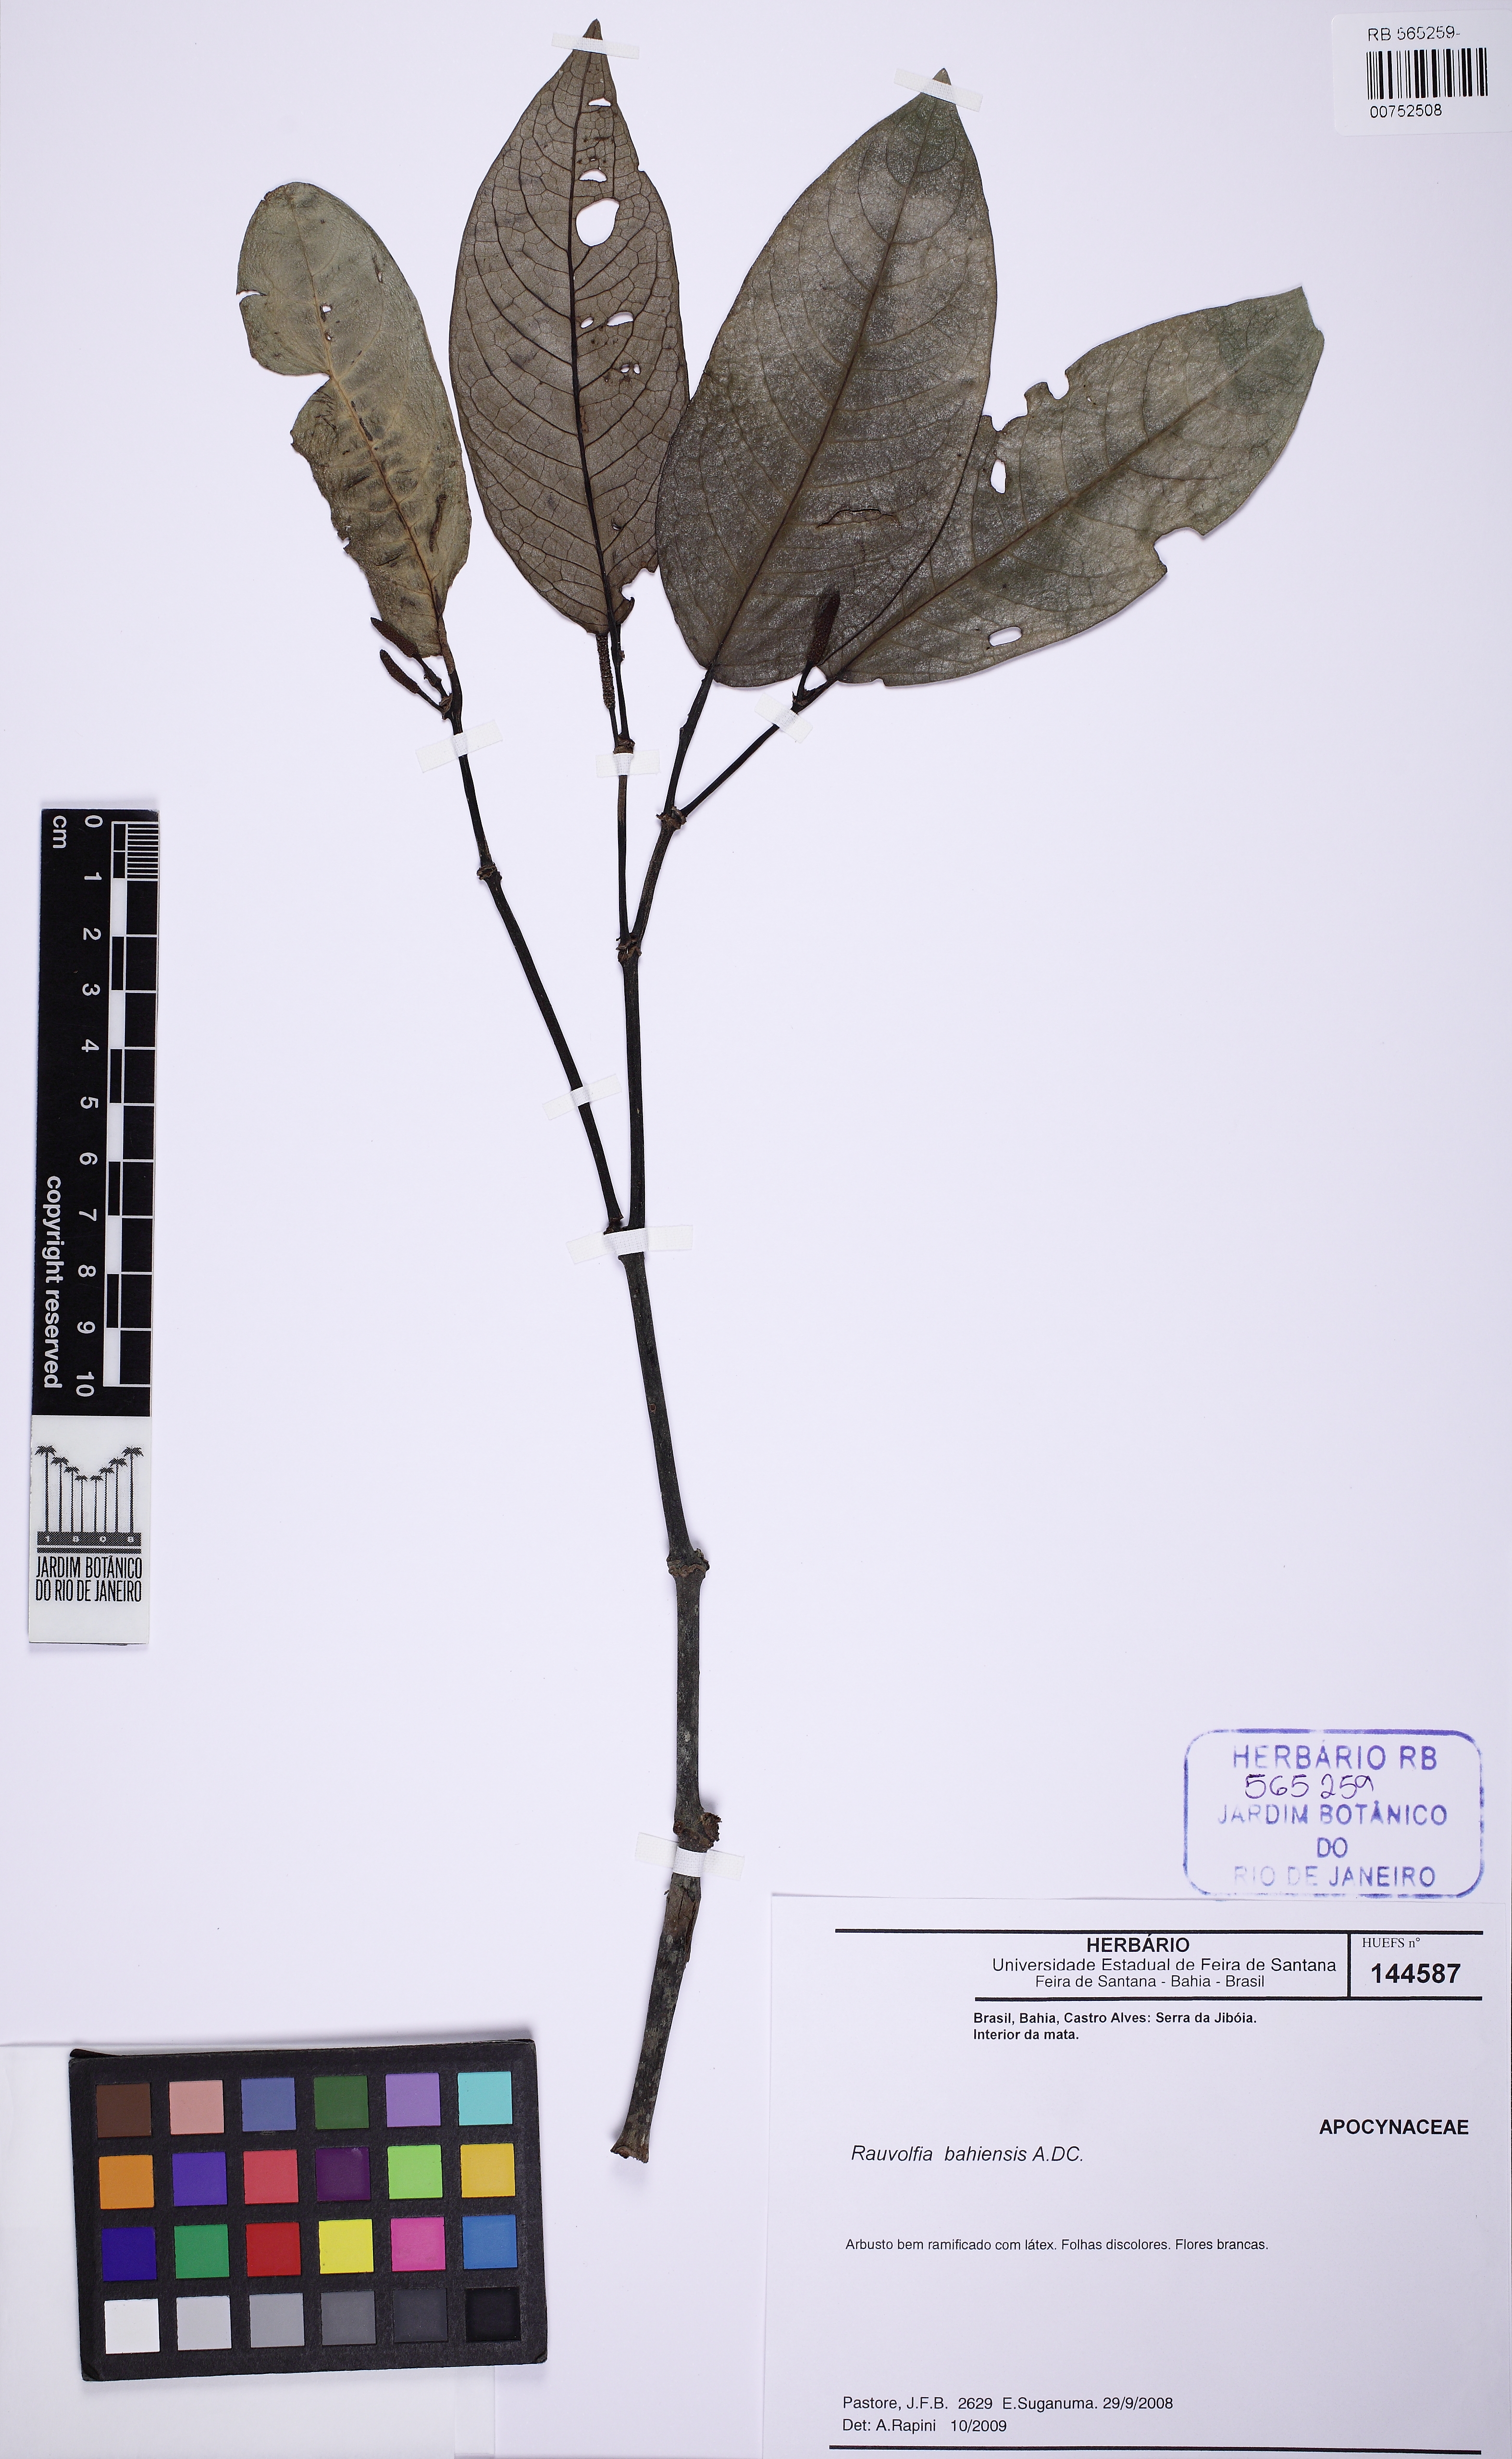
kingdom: Plantae
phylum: Tracheophyta
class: Magnoliopsida
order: Gentianales
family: Apocynaceae
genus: Rauvolfia
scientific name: Rauvolfia bahiensis
